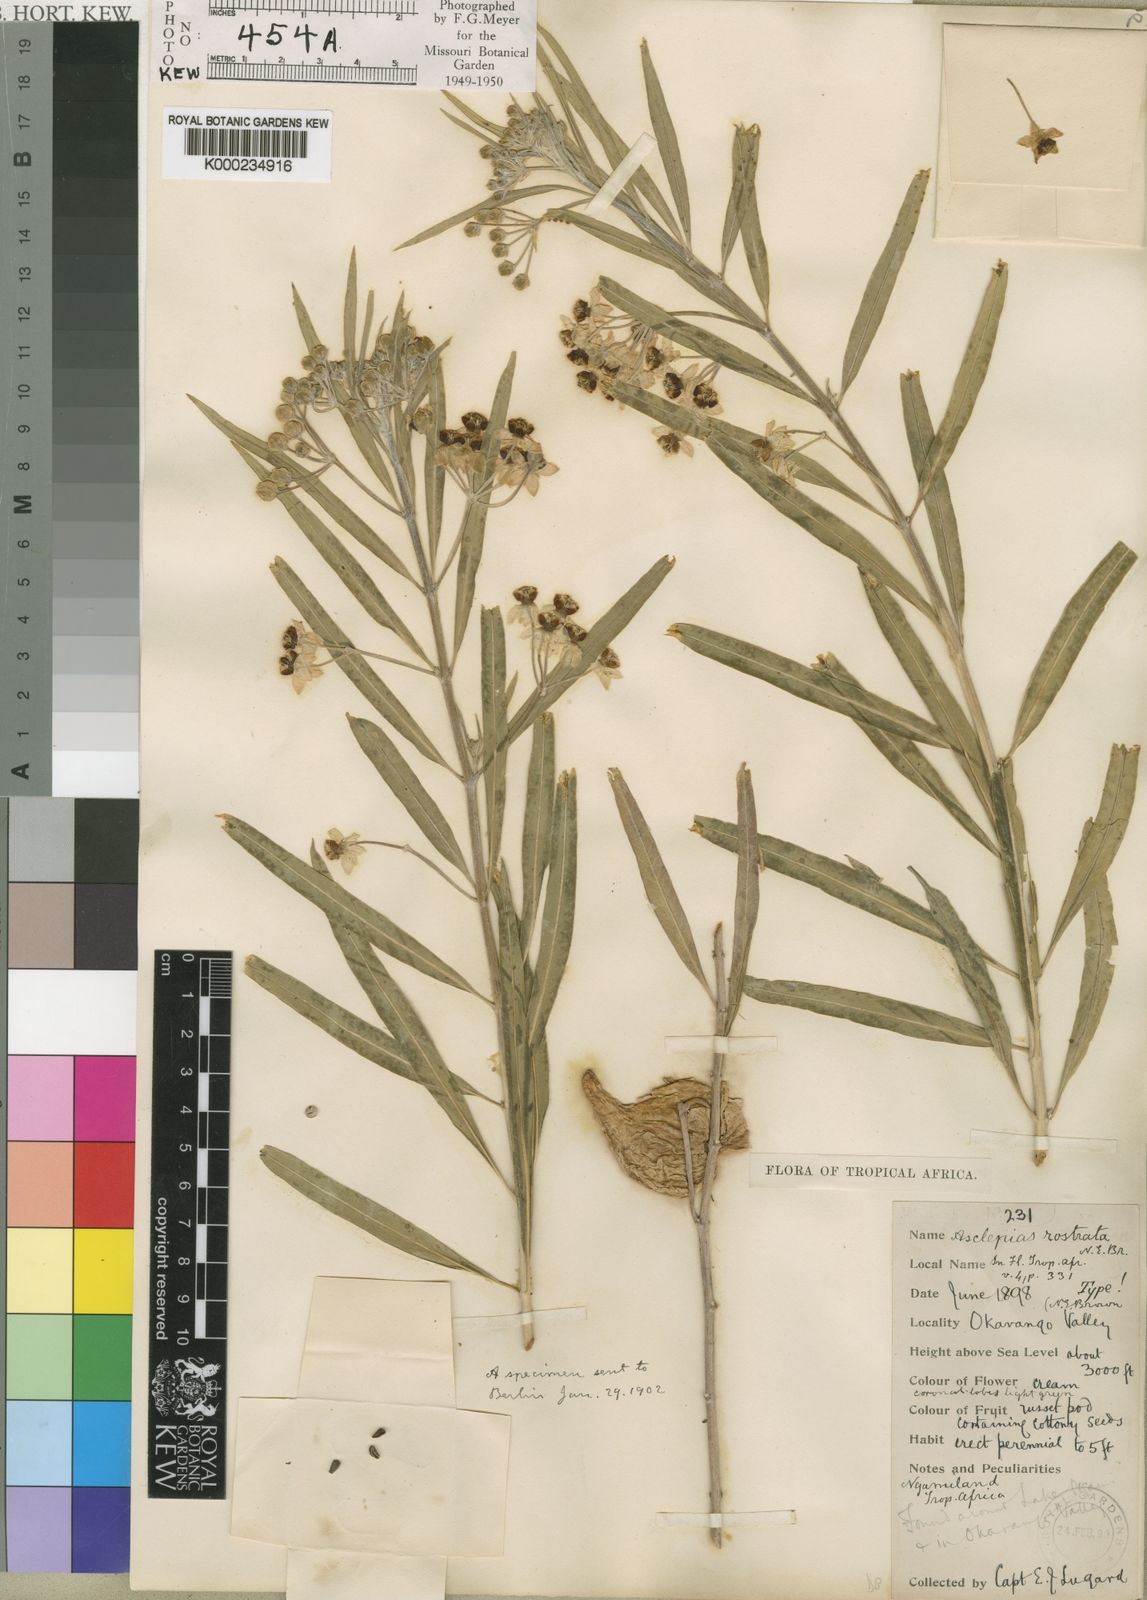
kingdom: Plantae
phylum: Tracheophyta
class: Magnoliopsida
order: Gentianales
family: Apocynaceae
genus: Gomphocarpus
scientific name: Gomphocarpus fruticosus
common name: Milkweed
